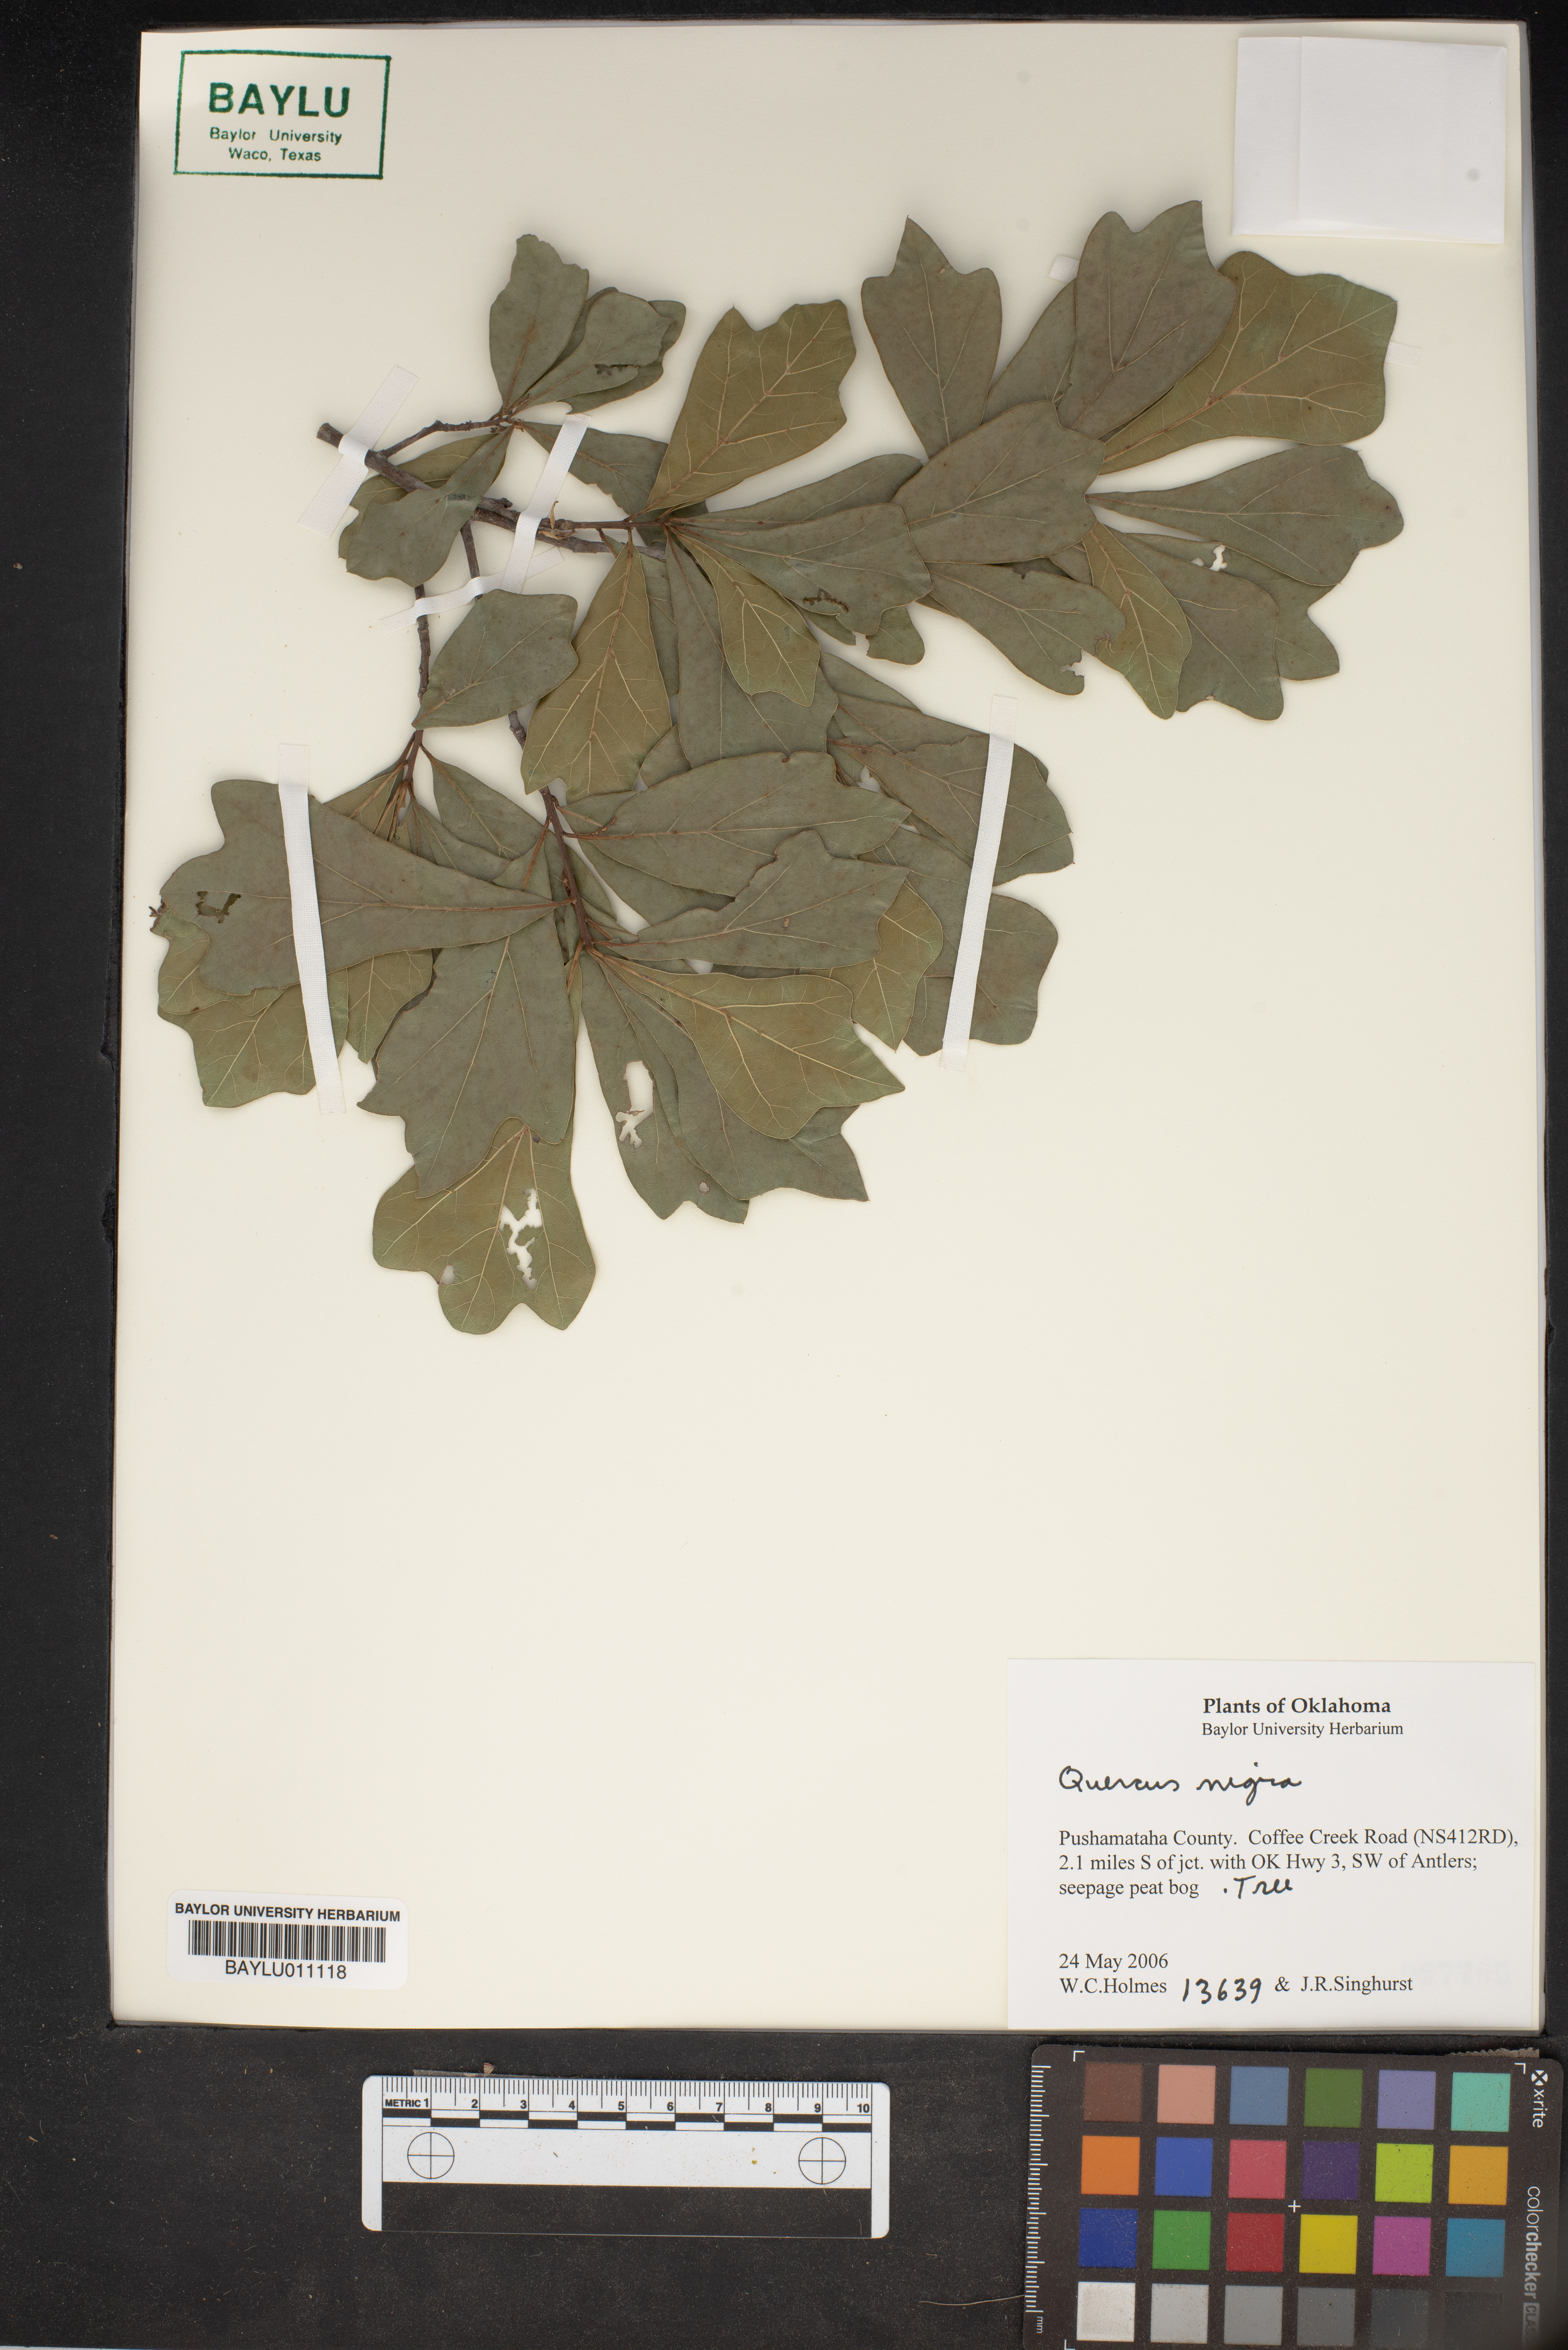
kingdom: Plantae
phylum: Tracheophyta
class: Magnoliopsida
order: Fagales
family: Fagaceae
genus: Quercus
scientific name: Quercus nigra
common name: Water oak
